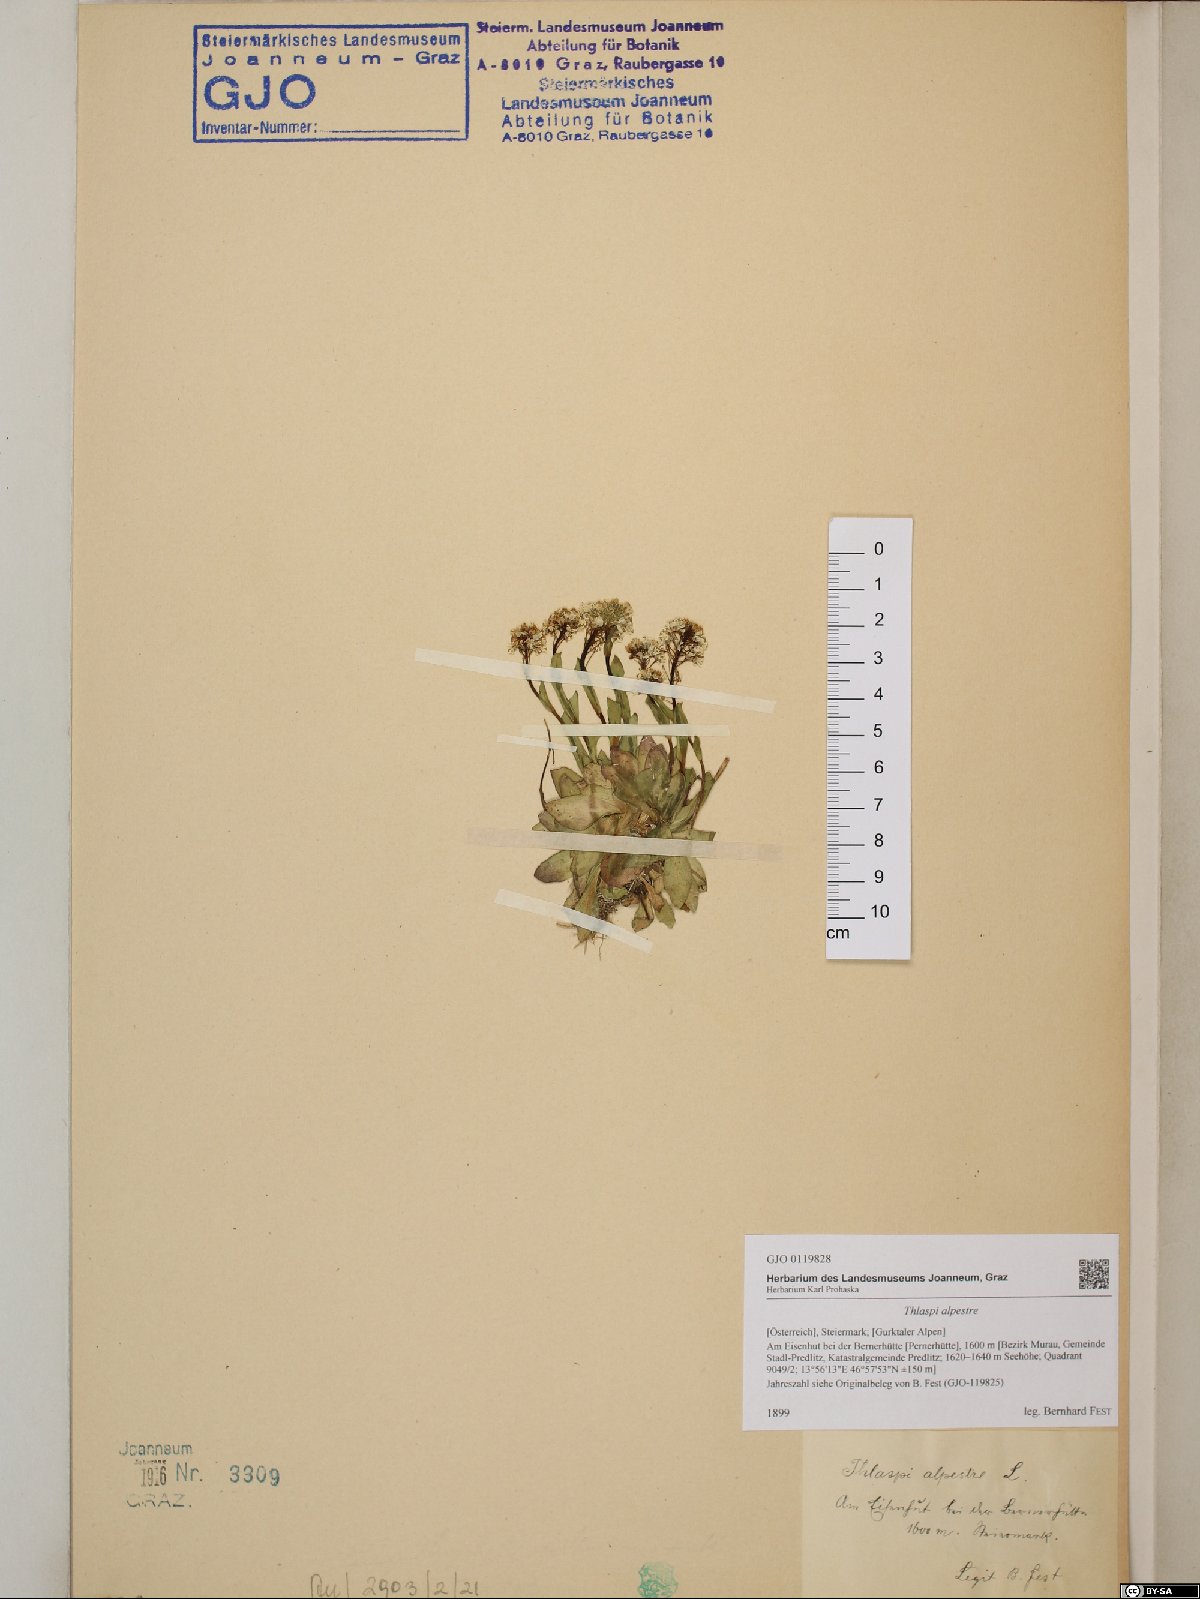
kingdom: Plantae
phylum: Tracheophyta
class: Magnoliopsida
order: Brassicales
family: Brassicaceae
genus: Noccaea
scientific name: Noccaea caerulescens
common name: Alpine pennycress
